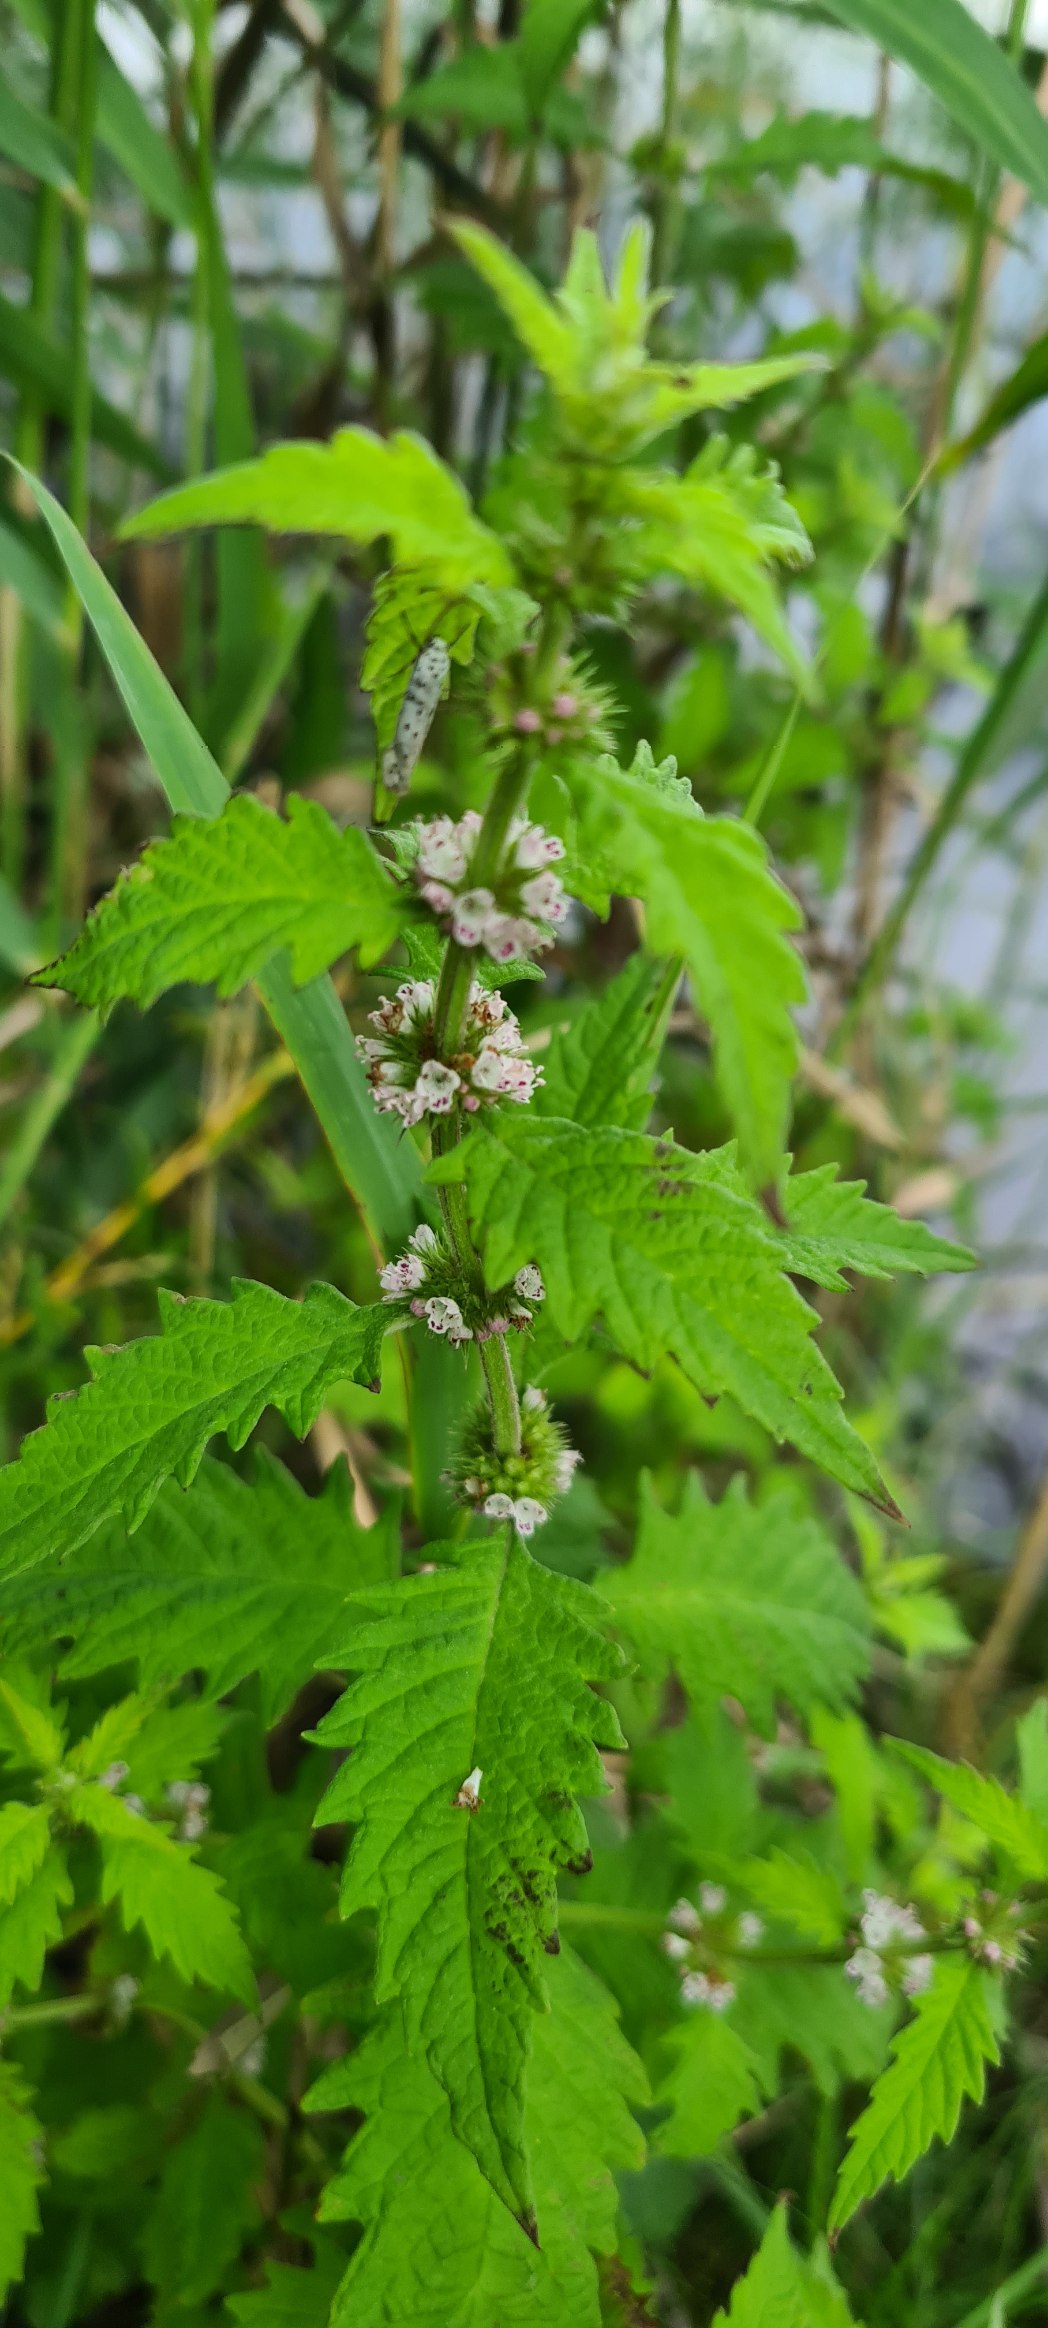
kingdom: Plantae
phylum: Tracheophyta
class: Magnoliopsida
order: Lamiales
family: Lamiaceae
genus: Lycopus
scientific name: Lycopus europaeus
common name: Sværtevæld
